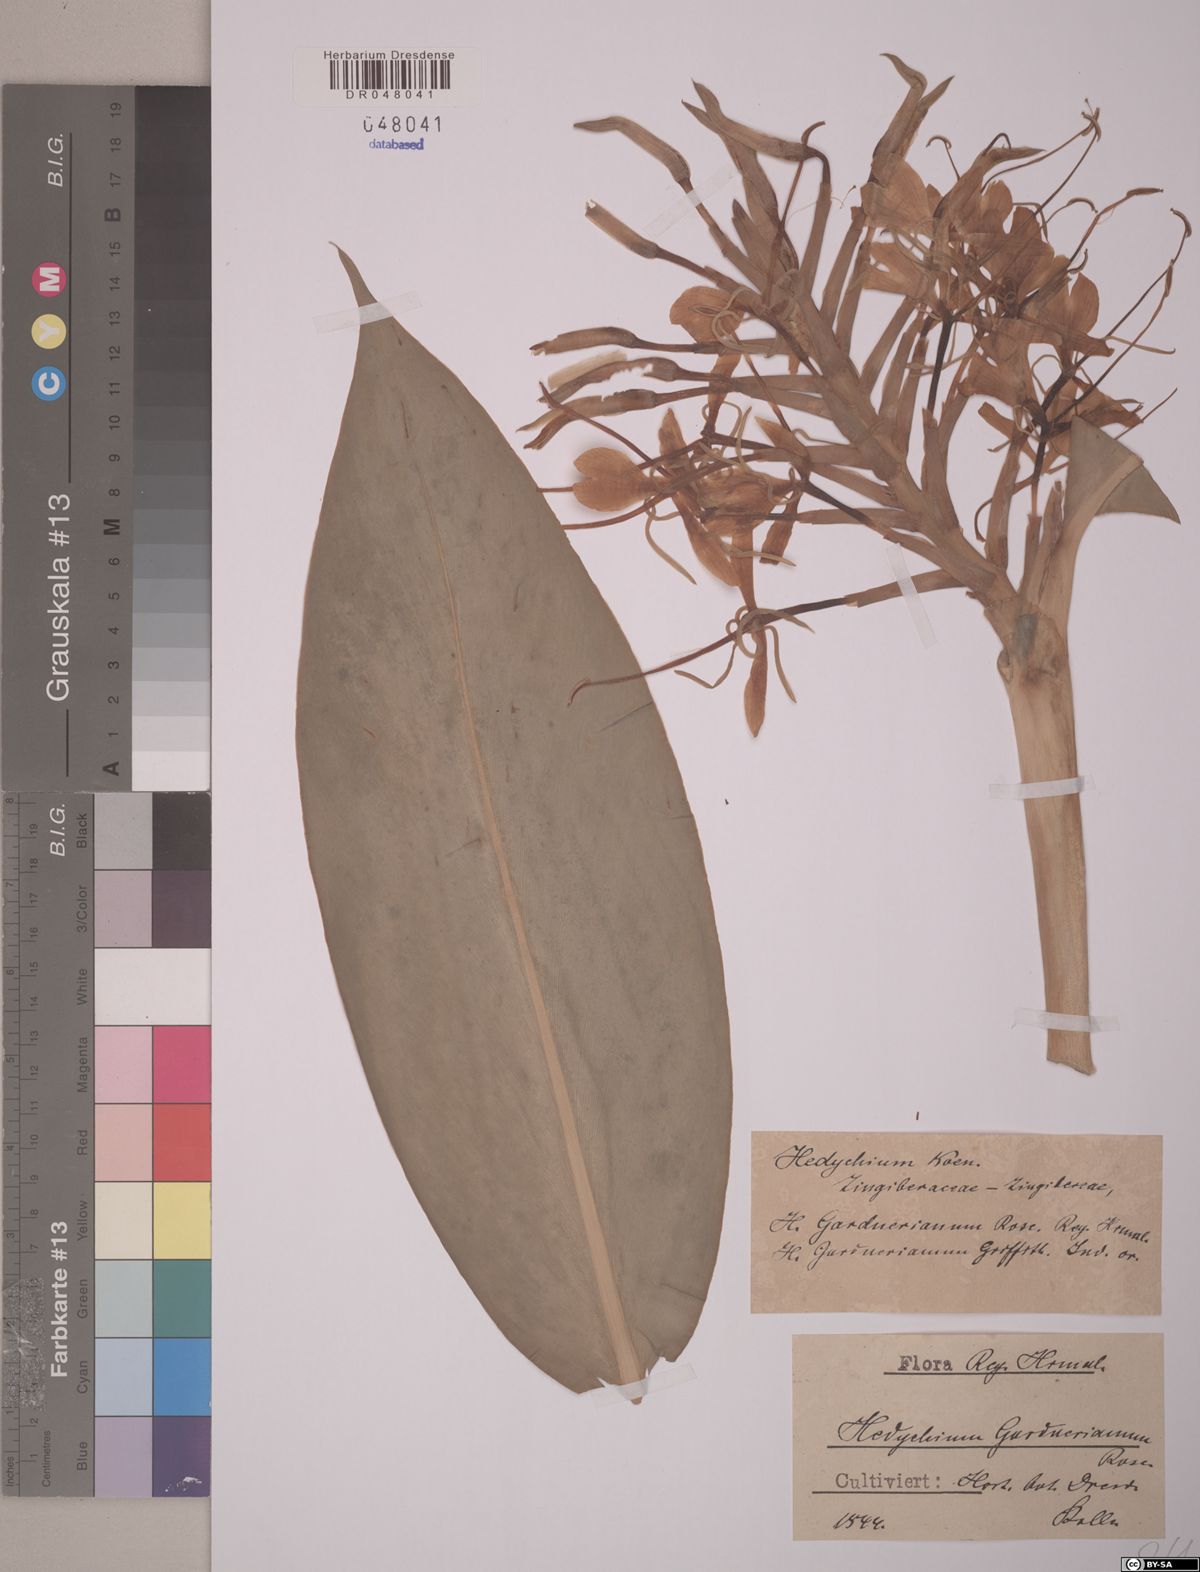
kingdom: Plantae
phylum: Tracheophyta
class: Liliopsida
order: Zingiberales
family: Zingiberaceae
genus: Hedychium
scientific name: Hedychium gardnerianum
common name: Himalayan ginger
